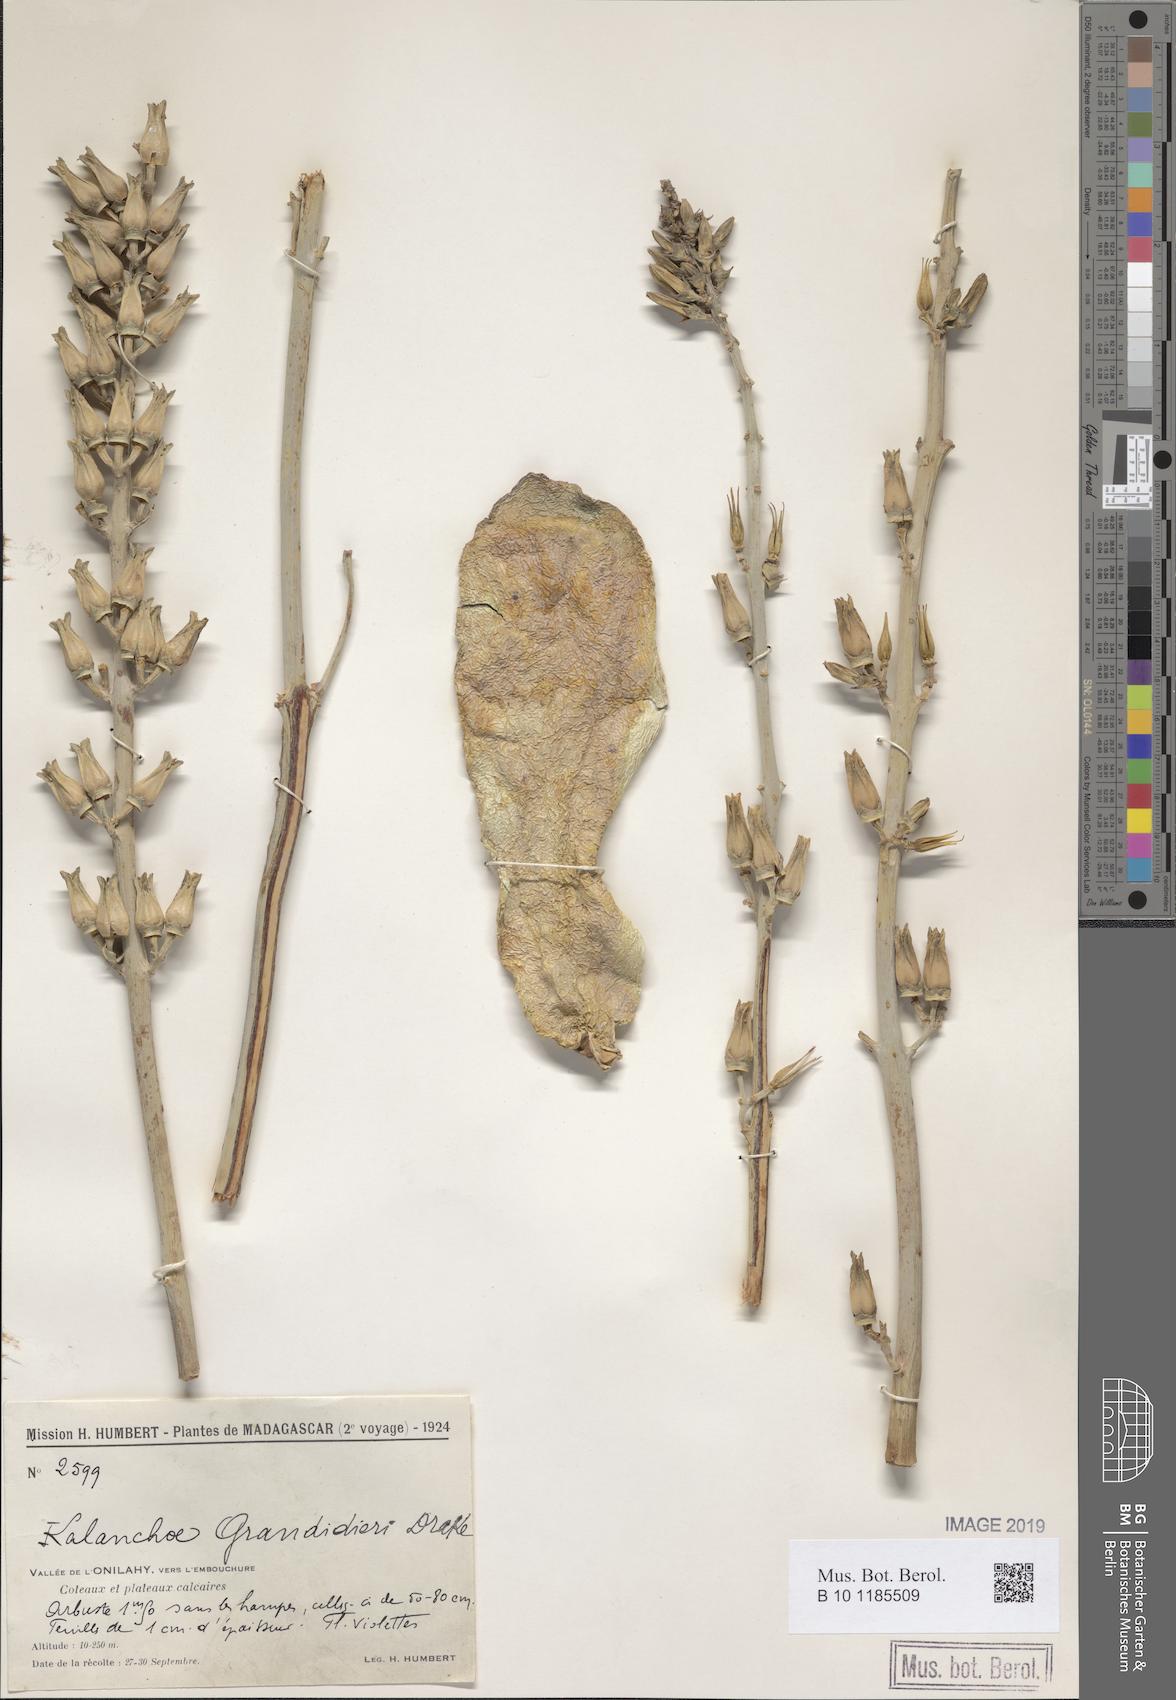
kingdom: Plantae
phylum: Tracheophyta
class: Magnoliopsida
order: Saxifragales
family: Crassulaceae
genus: Kalanchoe
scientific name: Kalanchoe grandidieri
